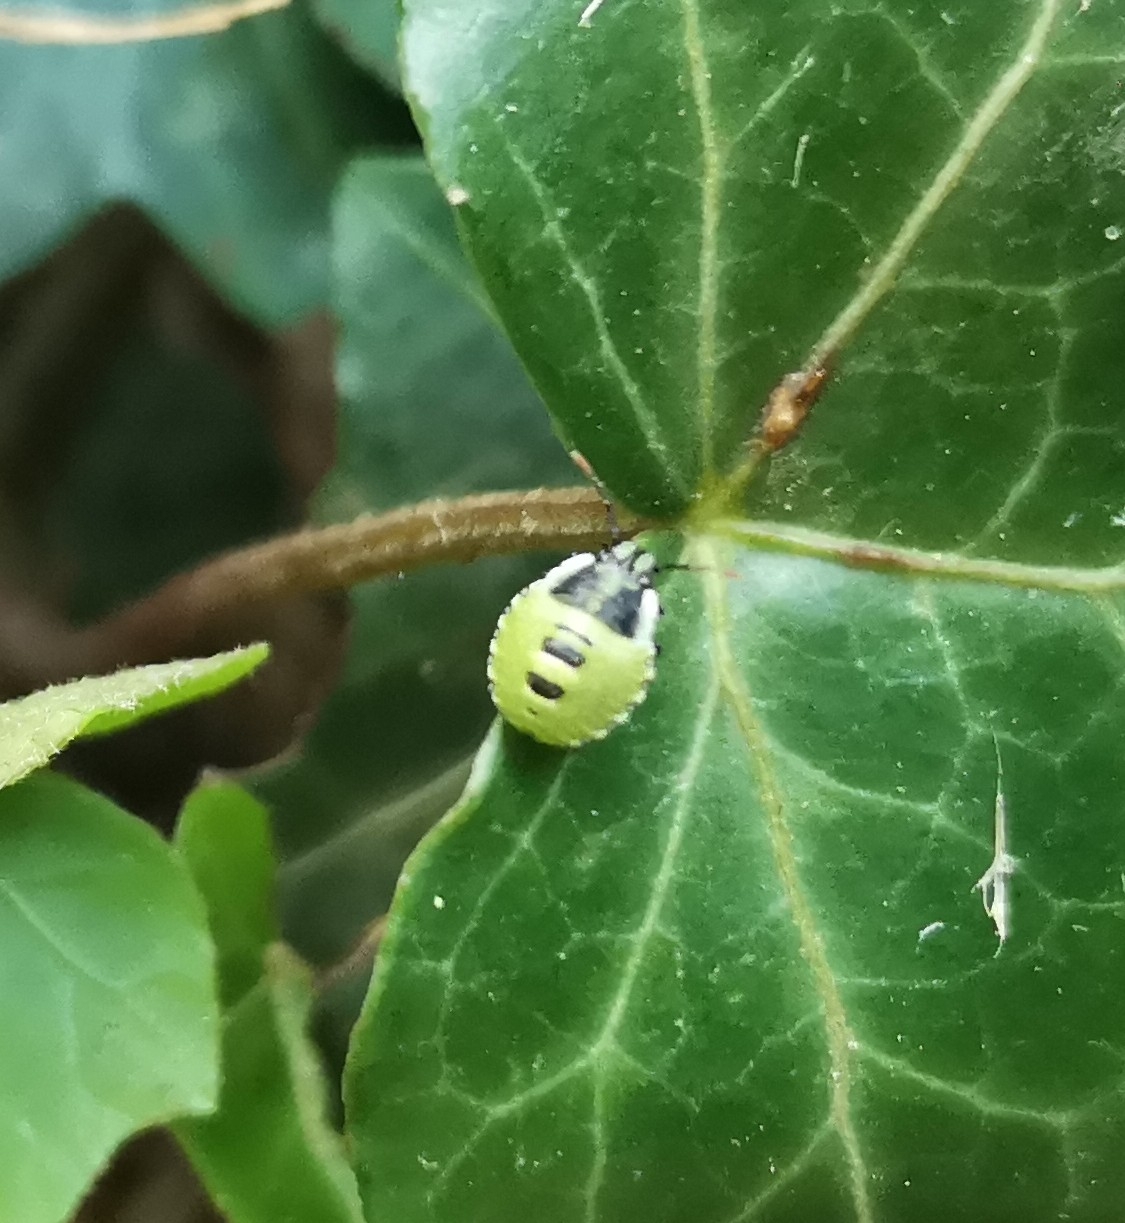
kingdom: Animalia
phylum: Arthropoda
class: Insecta
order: Hemiptera
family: Pentatomidae
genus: Palomena
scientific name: Palomena prasina
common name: Grøn bredtæge
